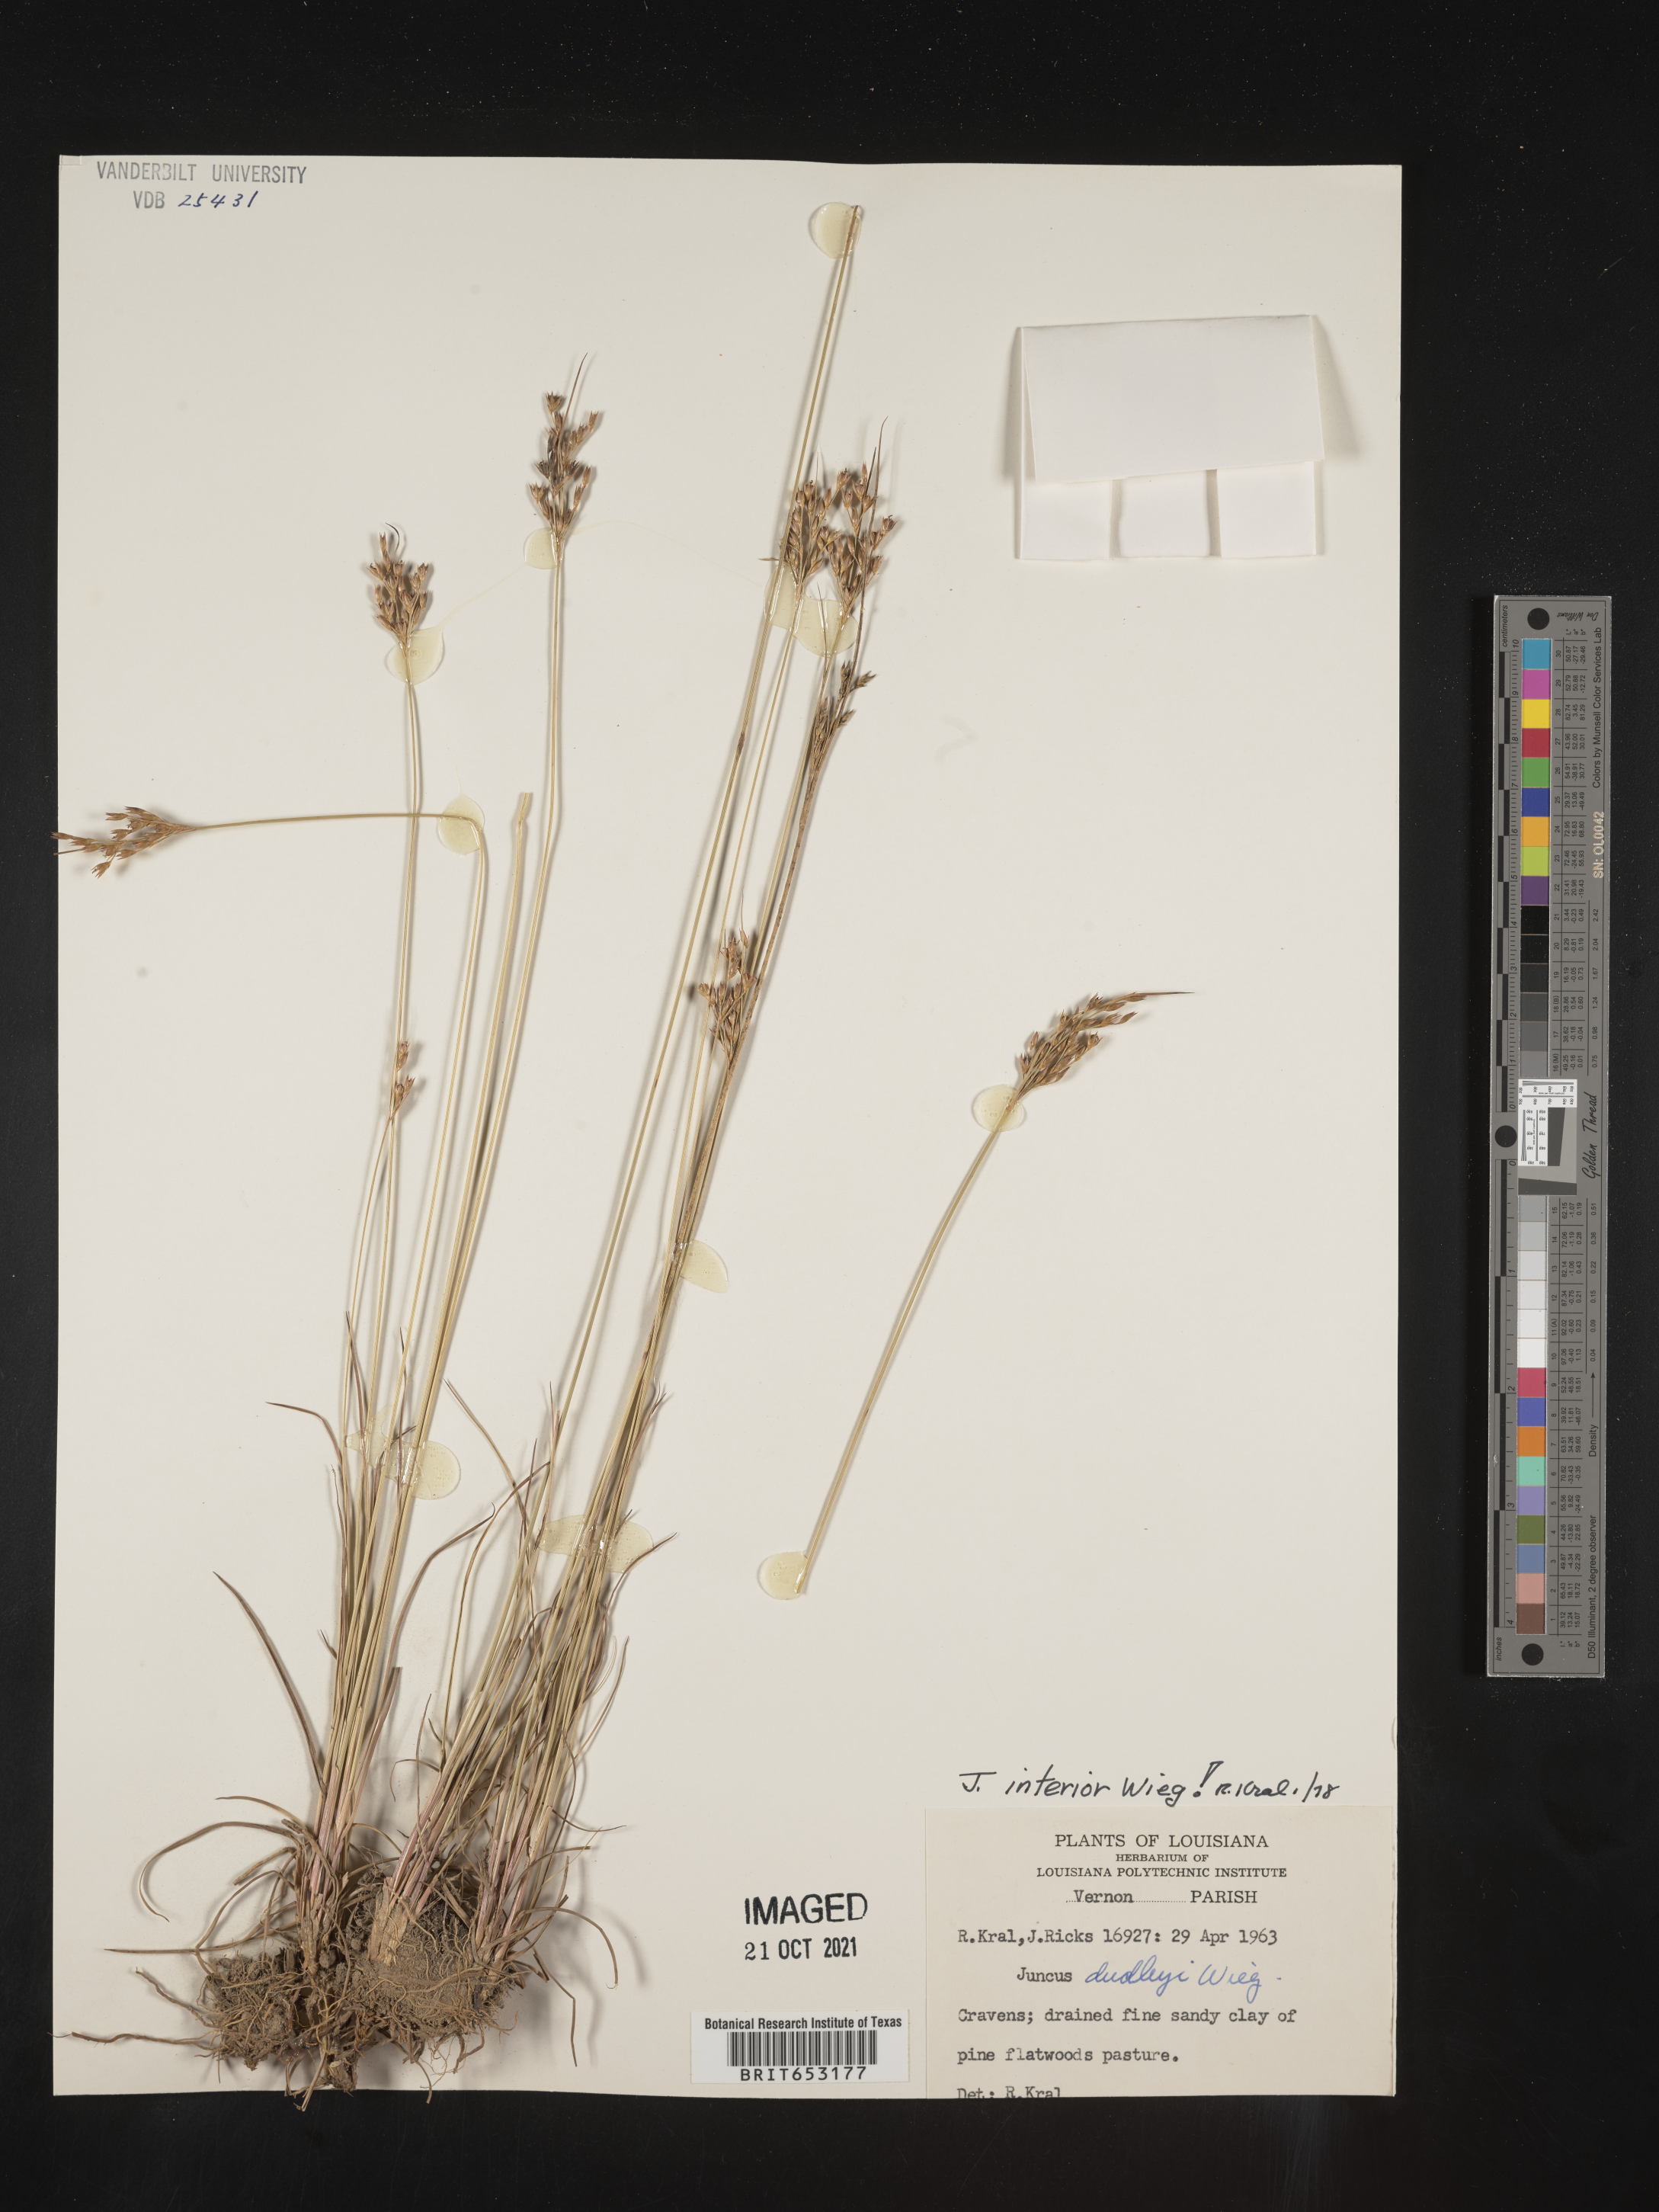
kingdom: Plantae
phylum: Tracheophyta
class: Liliopsida
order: Poales
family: Juncaceae
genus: Juncus
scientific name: Juncus interior
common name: Interior rush
